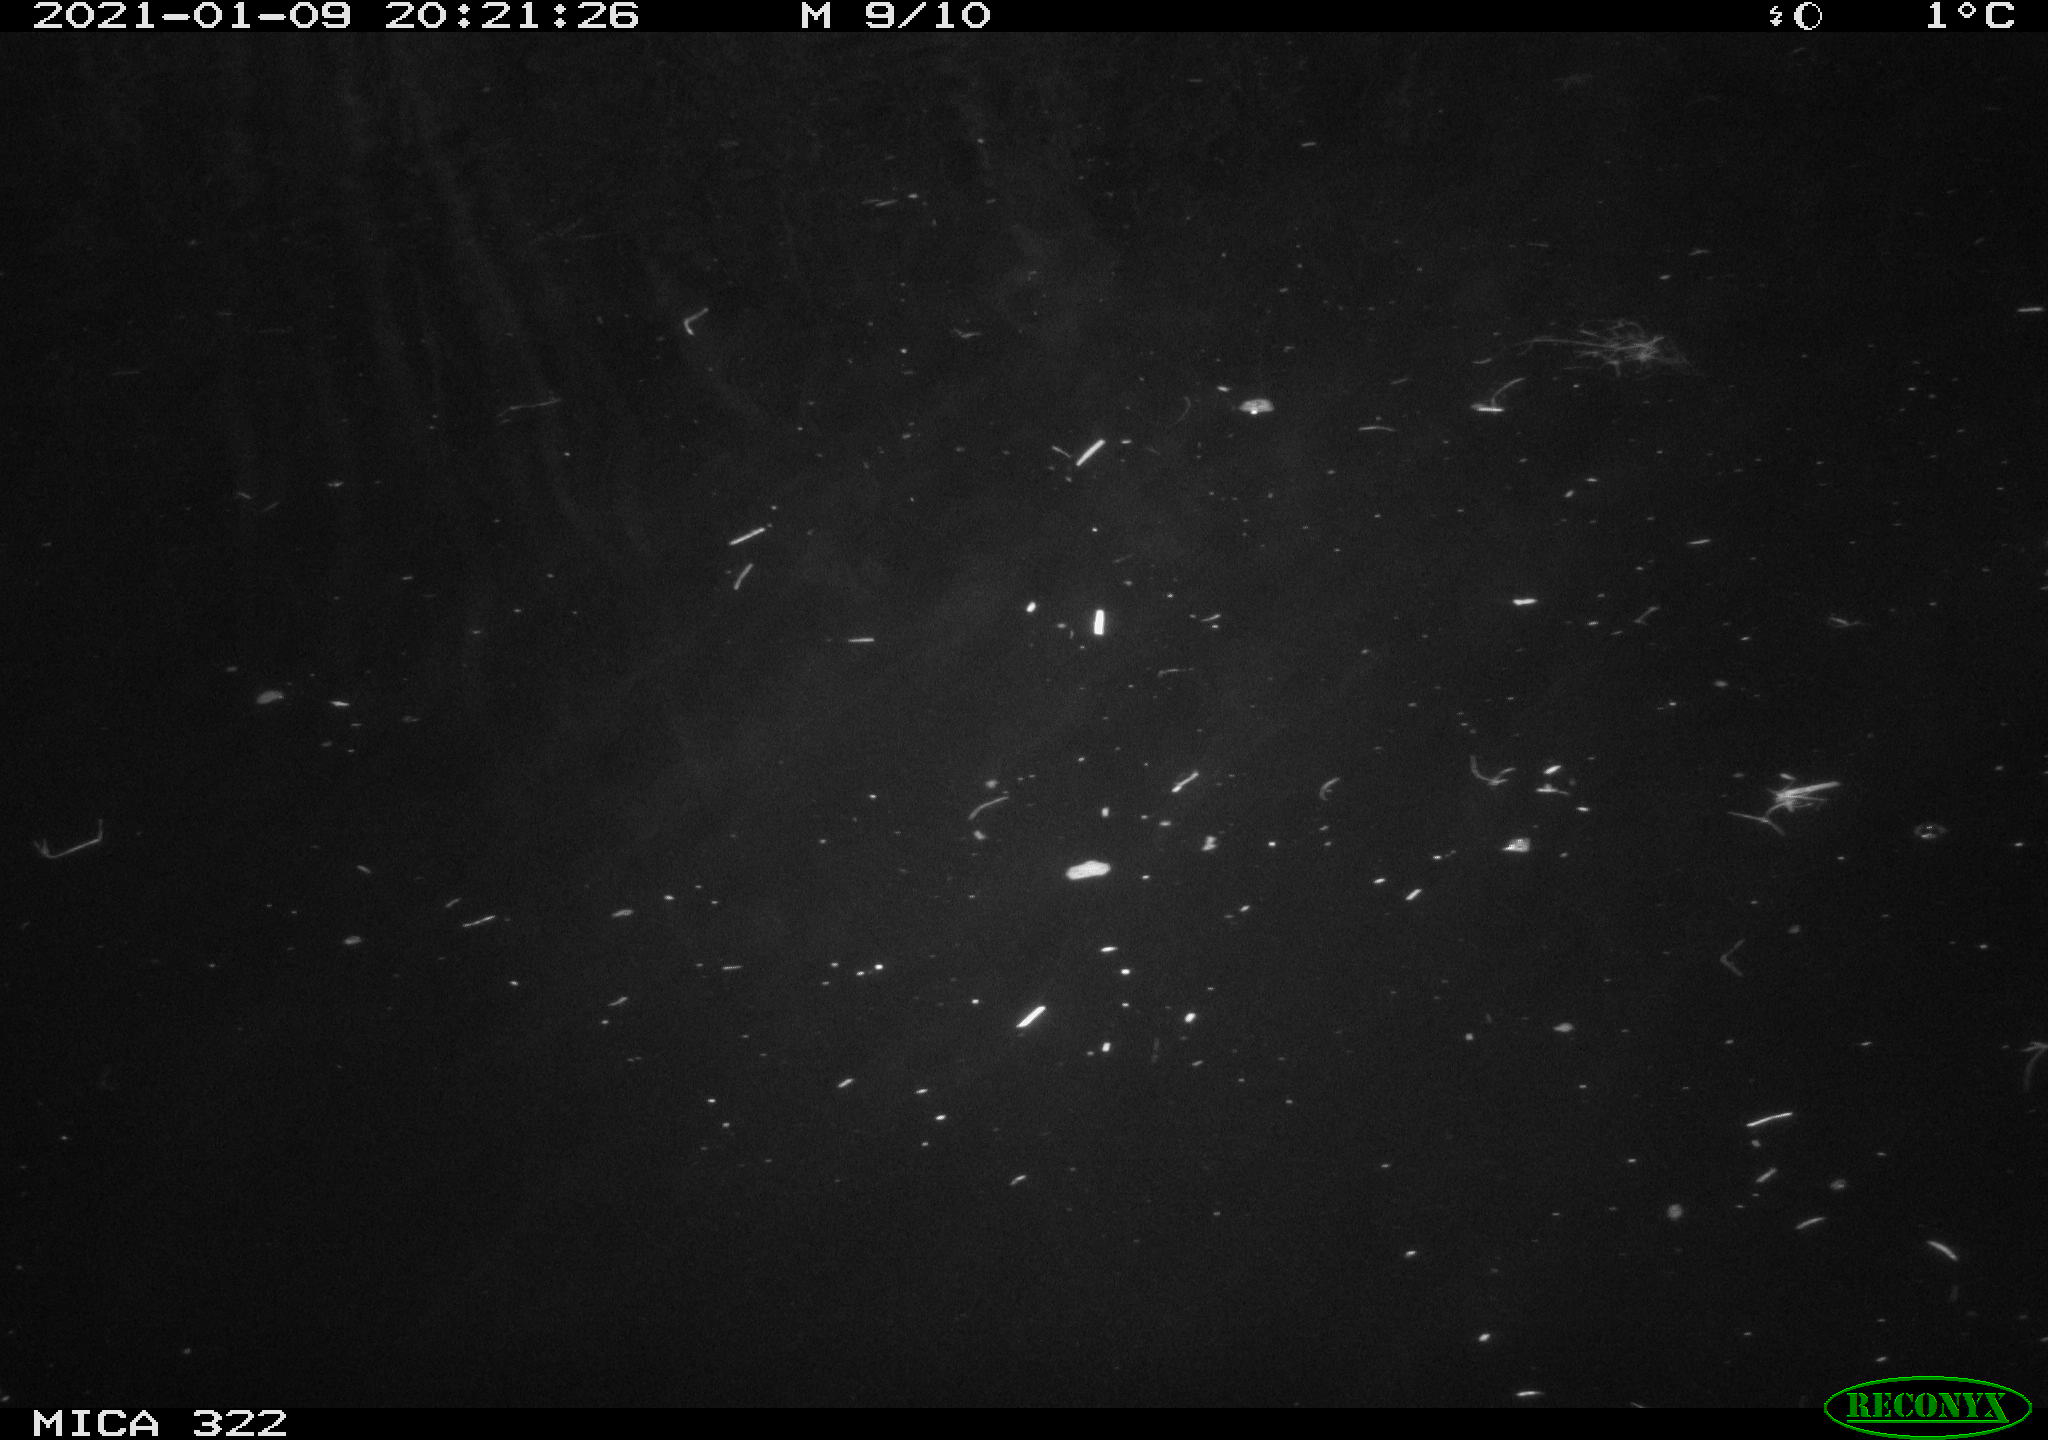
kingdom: Animalia
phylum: Chordata
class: Aves
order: Anseriformes
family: Anatidae
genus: Anas
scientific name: Anas platyrhynchos
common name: Mallard
